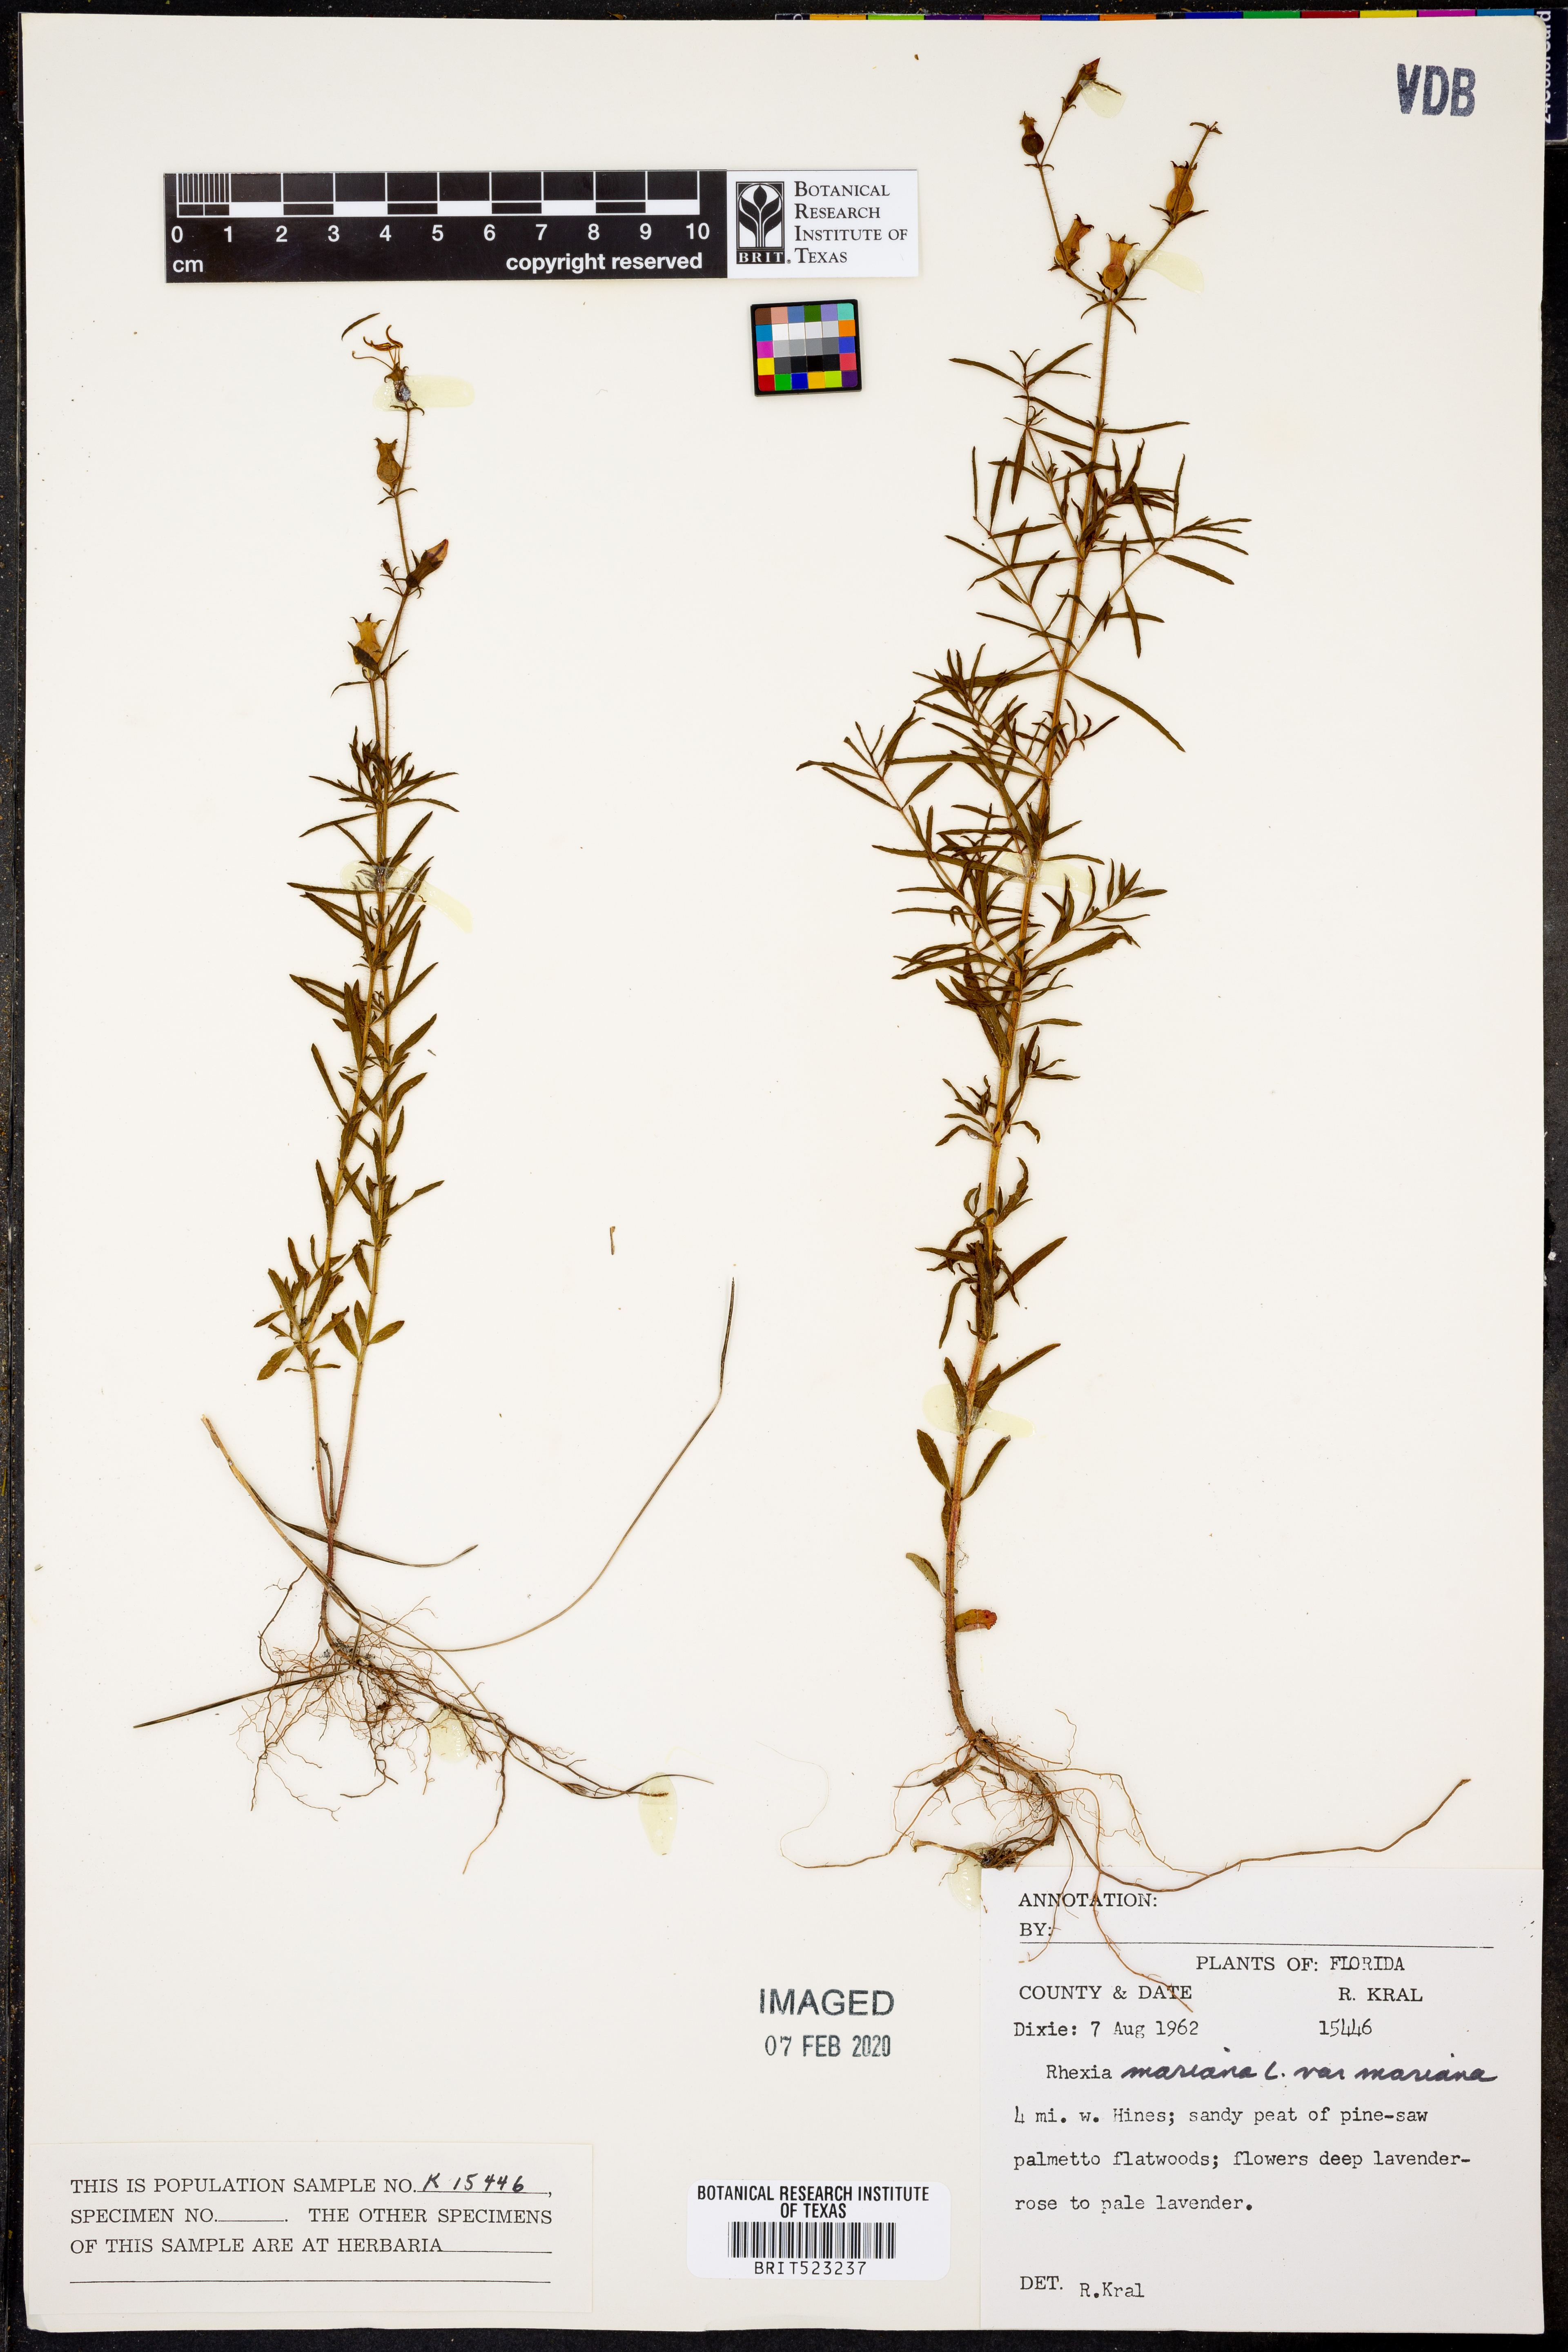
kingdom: Plantae
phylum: Tracheophyta
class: Magnoliopsida
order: Myrtales
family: Melastomataceae
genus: Rhexia
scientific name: Rhexia mariana
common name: Dull meadow-pitcher
